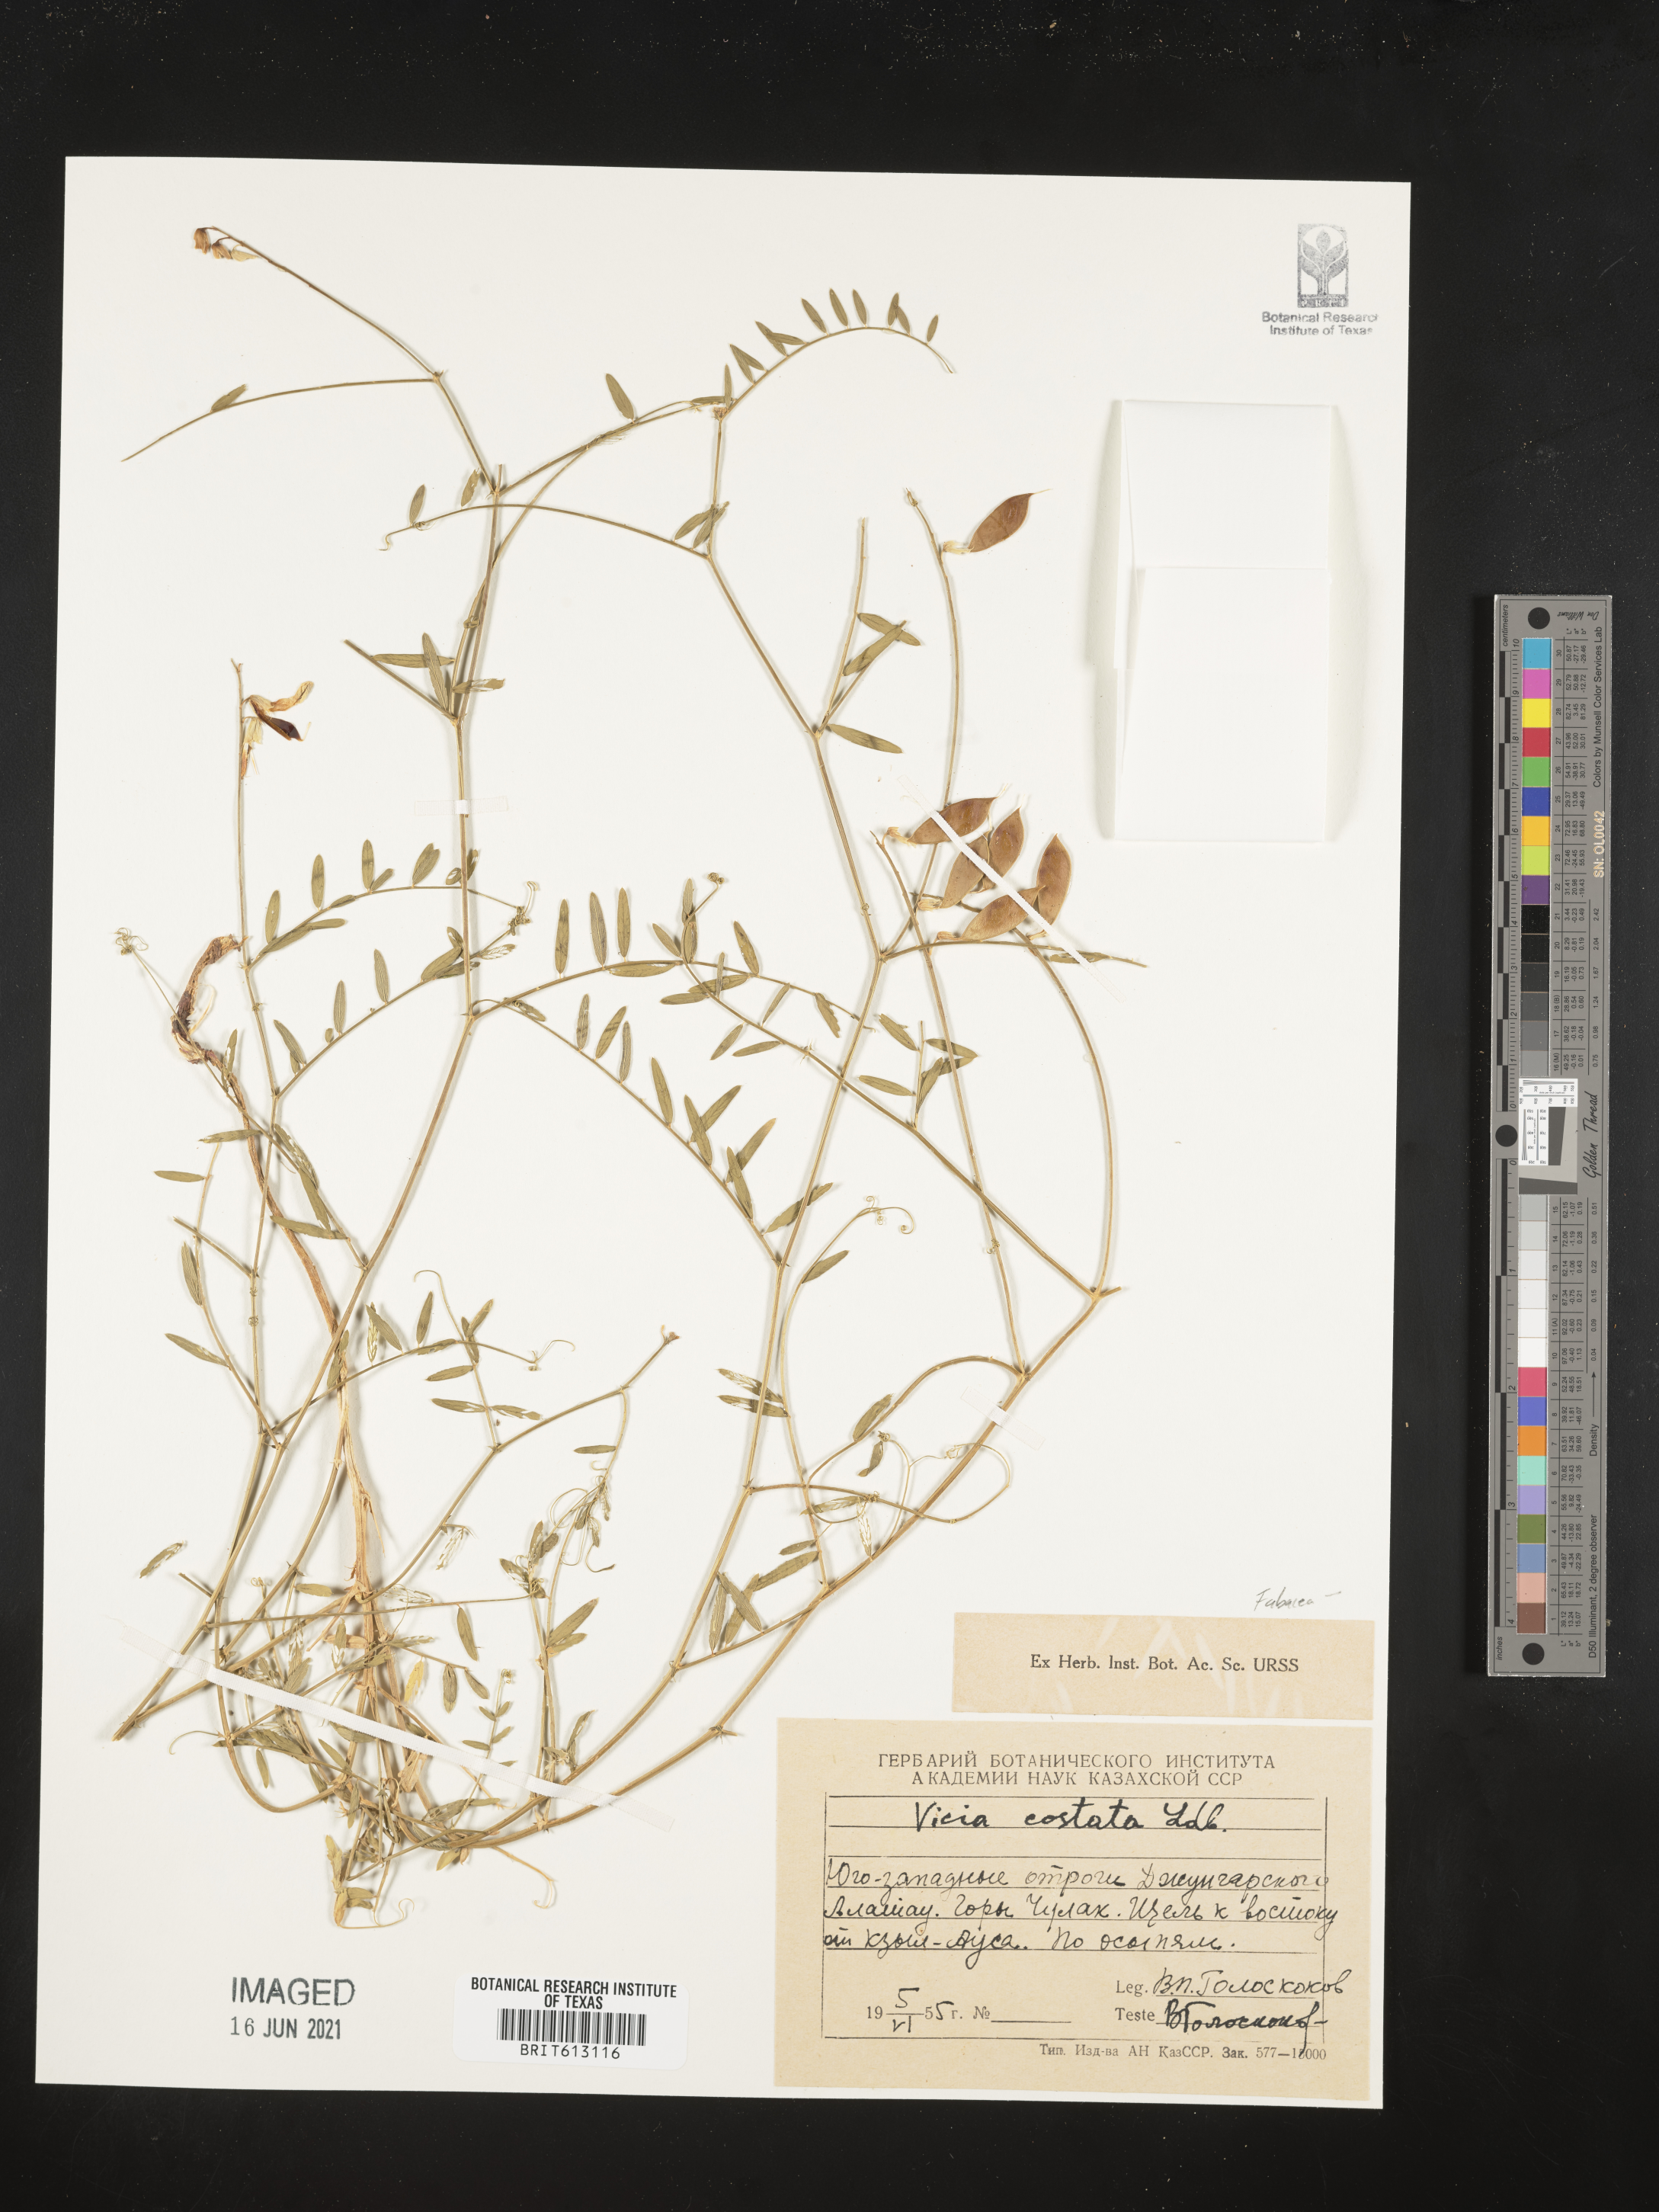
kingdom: Plantae
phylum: Tracheophyta
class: Magnoliopsida
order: Fabales
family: Fabaceae
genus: Vicia
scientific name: Vicia costata
